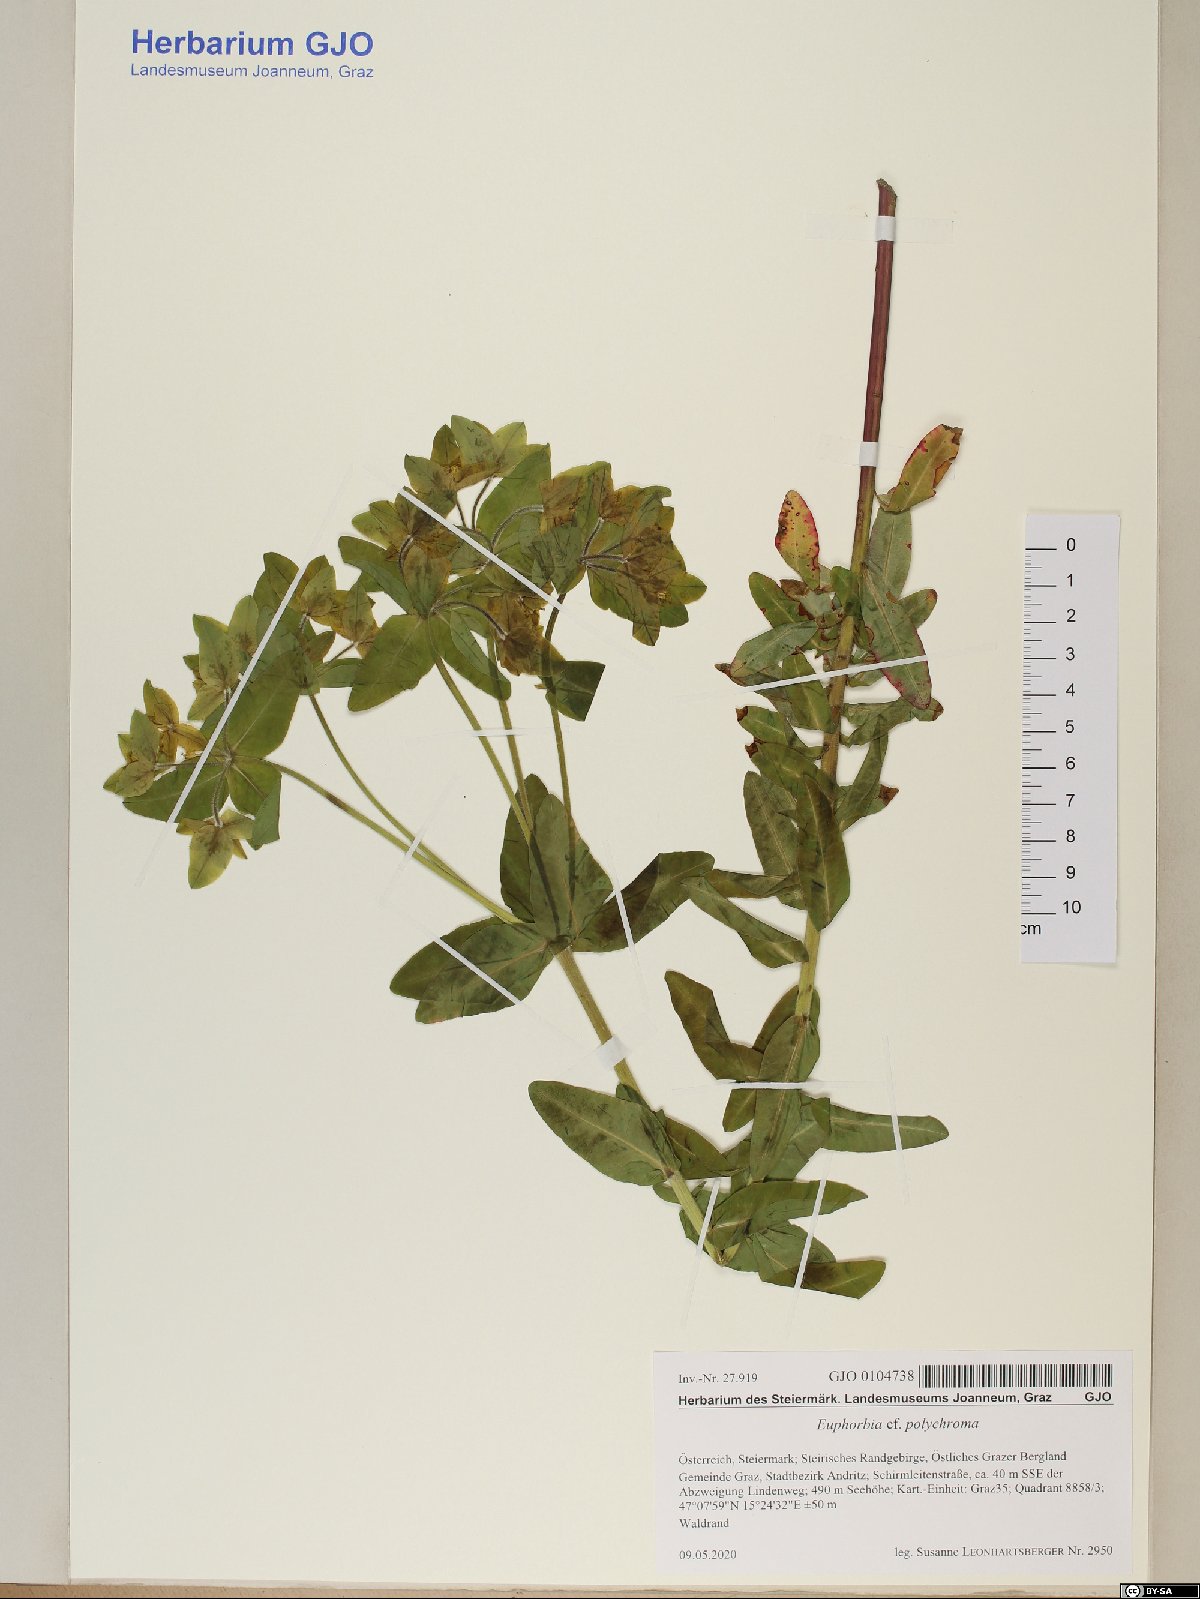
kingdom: Plantae
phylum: Tracheophyta
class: Magnoliopsida
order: Malpighiales
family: Euphorbiaceae
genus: Euphorbia
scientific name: Euphorbia epithymoides
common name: Cushion spurge
